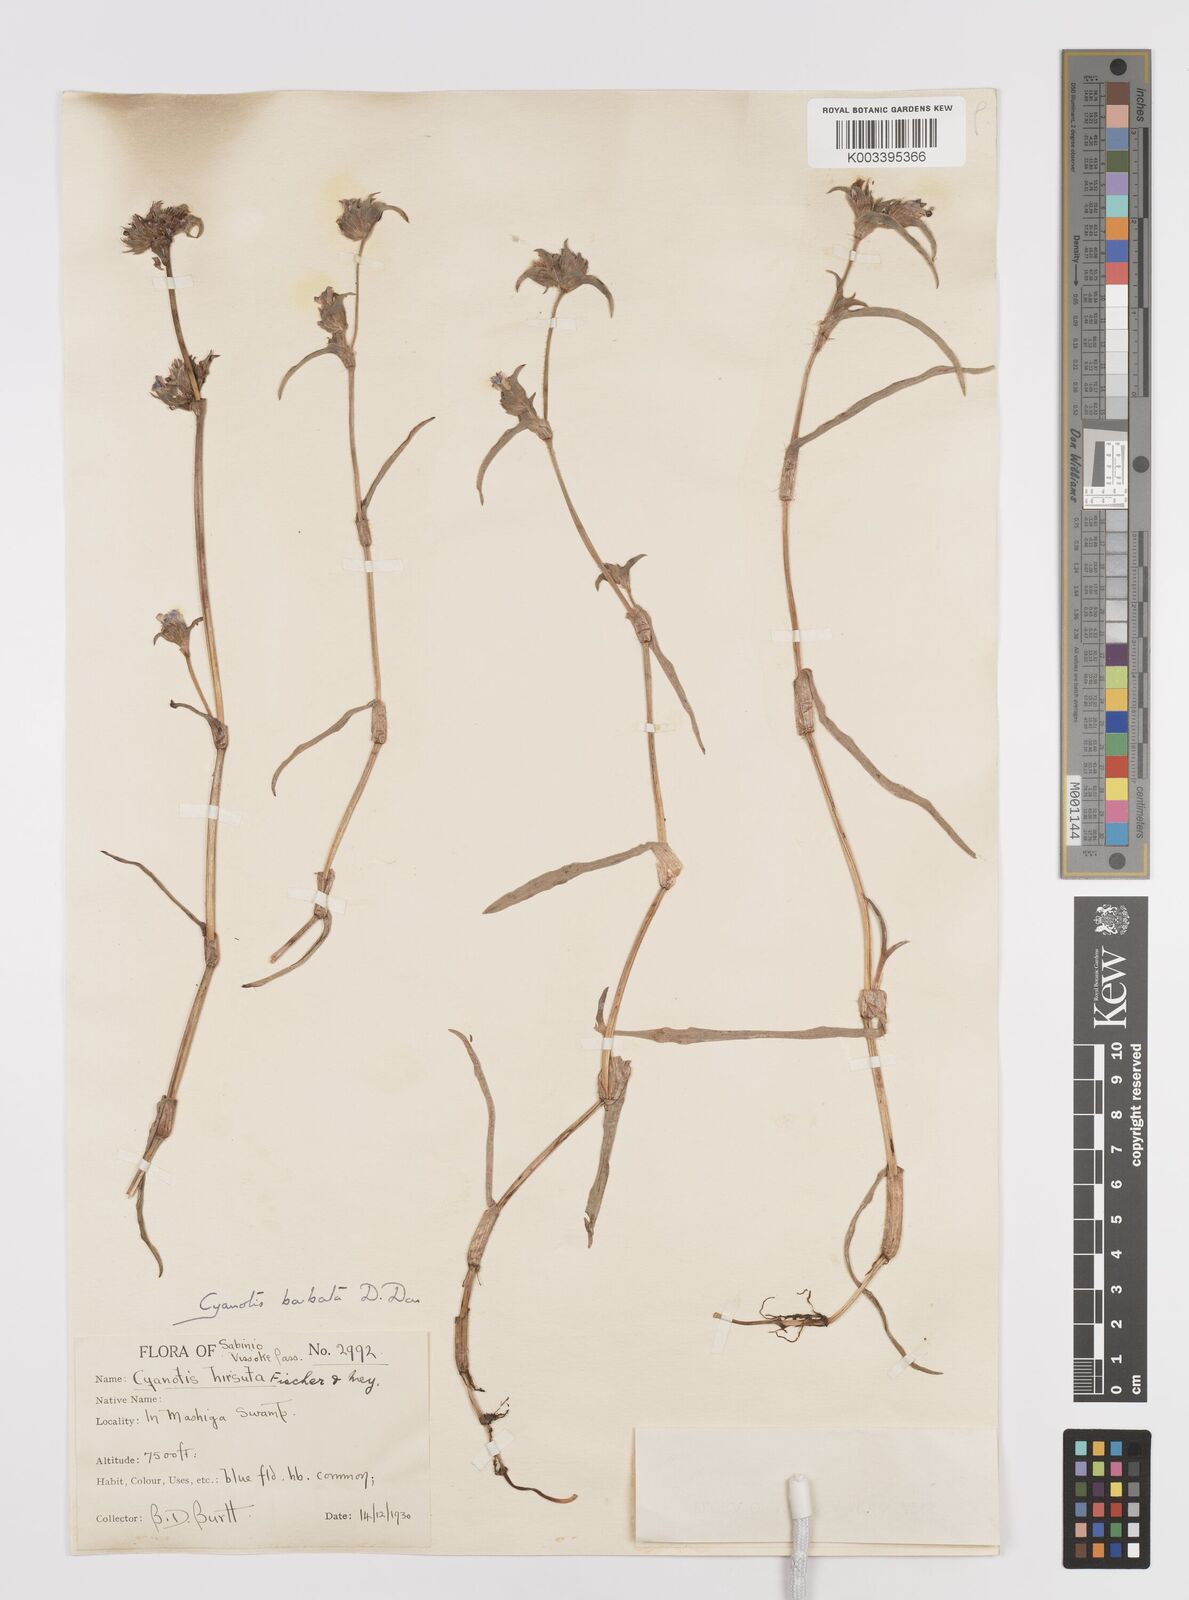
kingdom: Plantae
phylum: Tracheophyta
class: Liliopsida
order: Commelinales
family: Commelinaceae
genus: Cyanotis
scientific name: Cyanotis vaga
